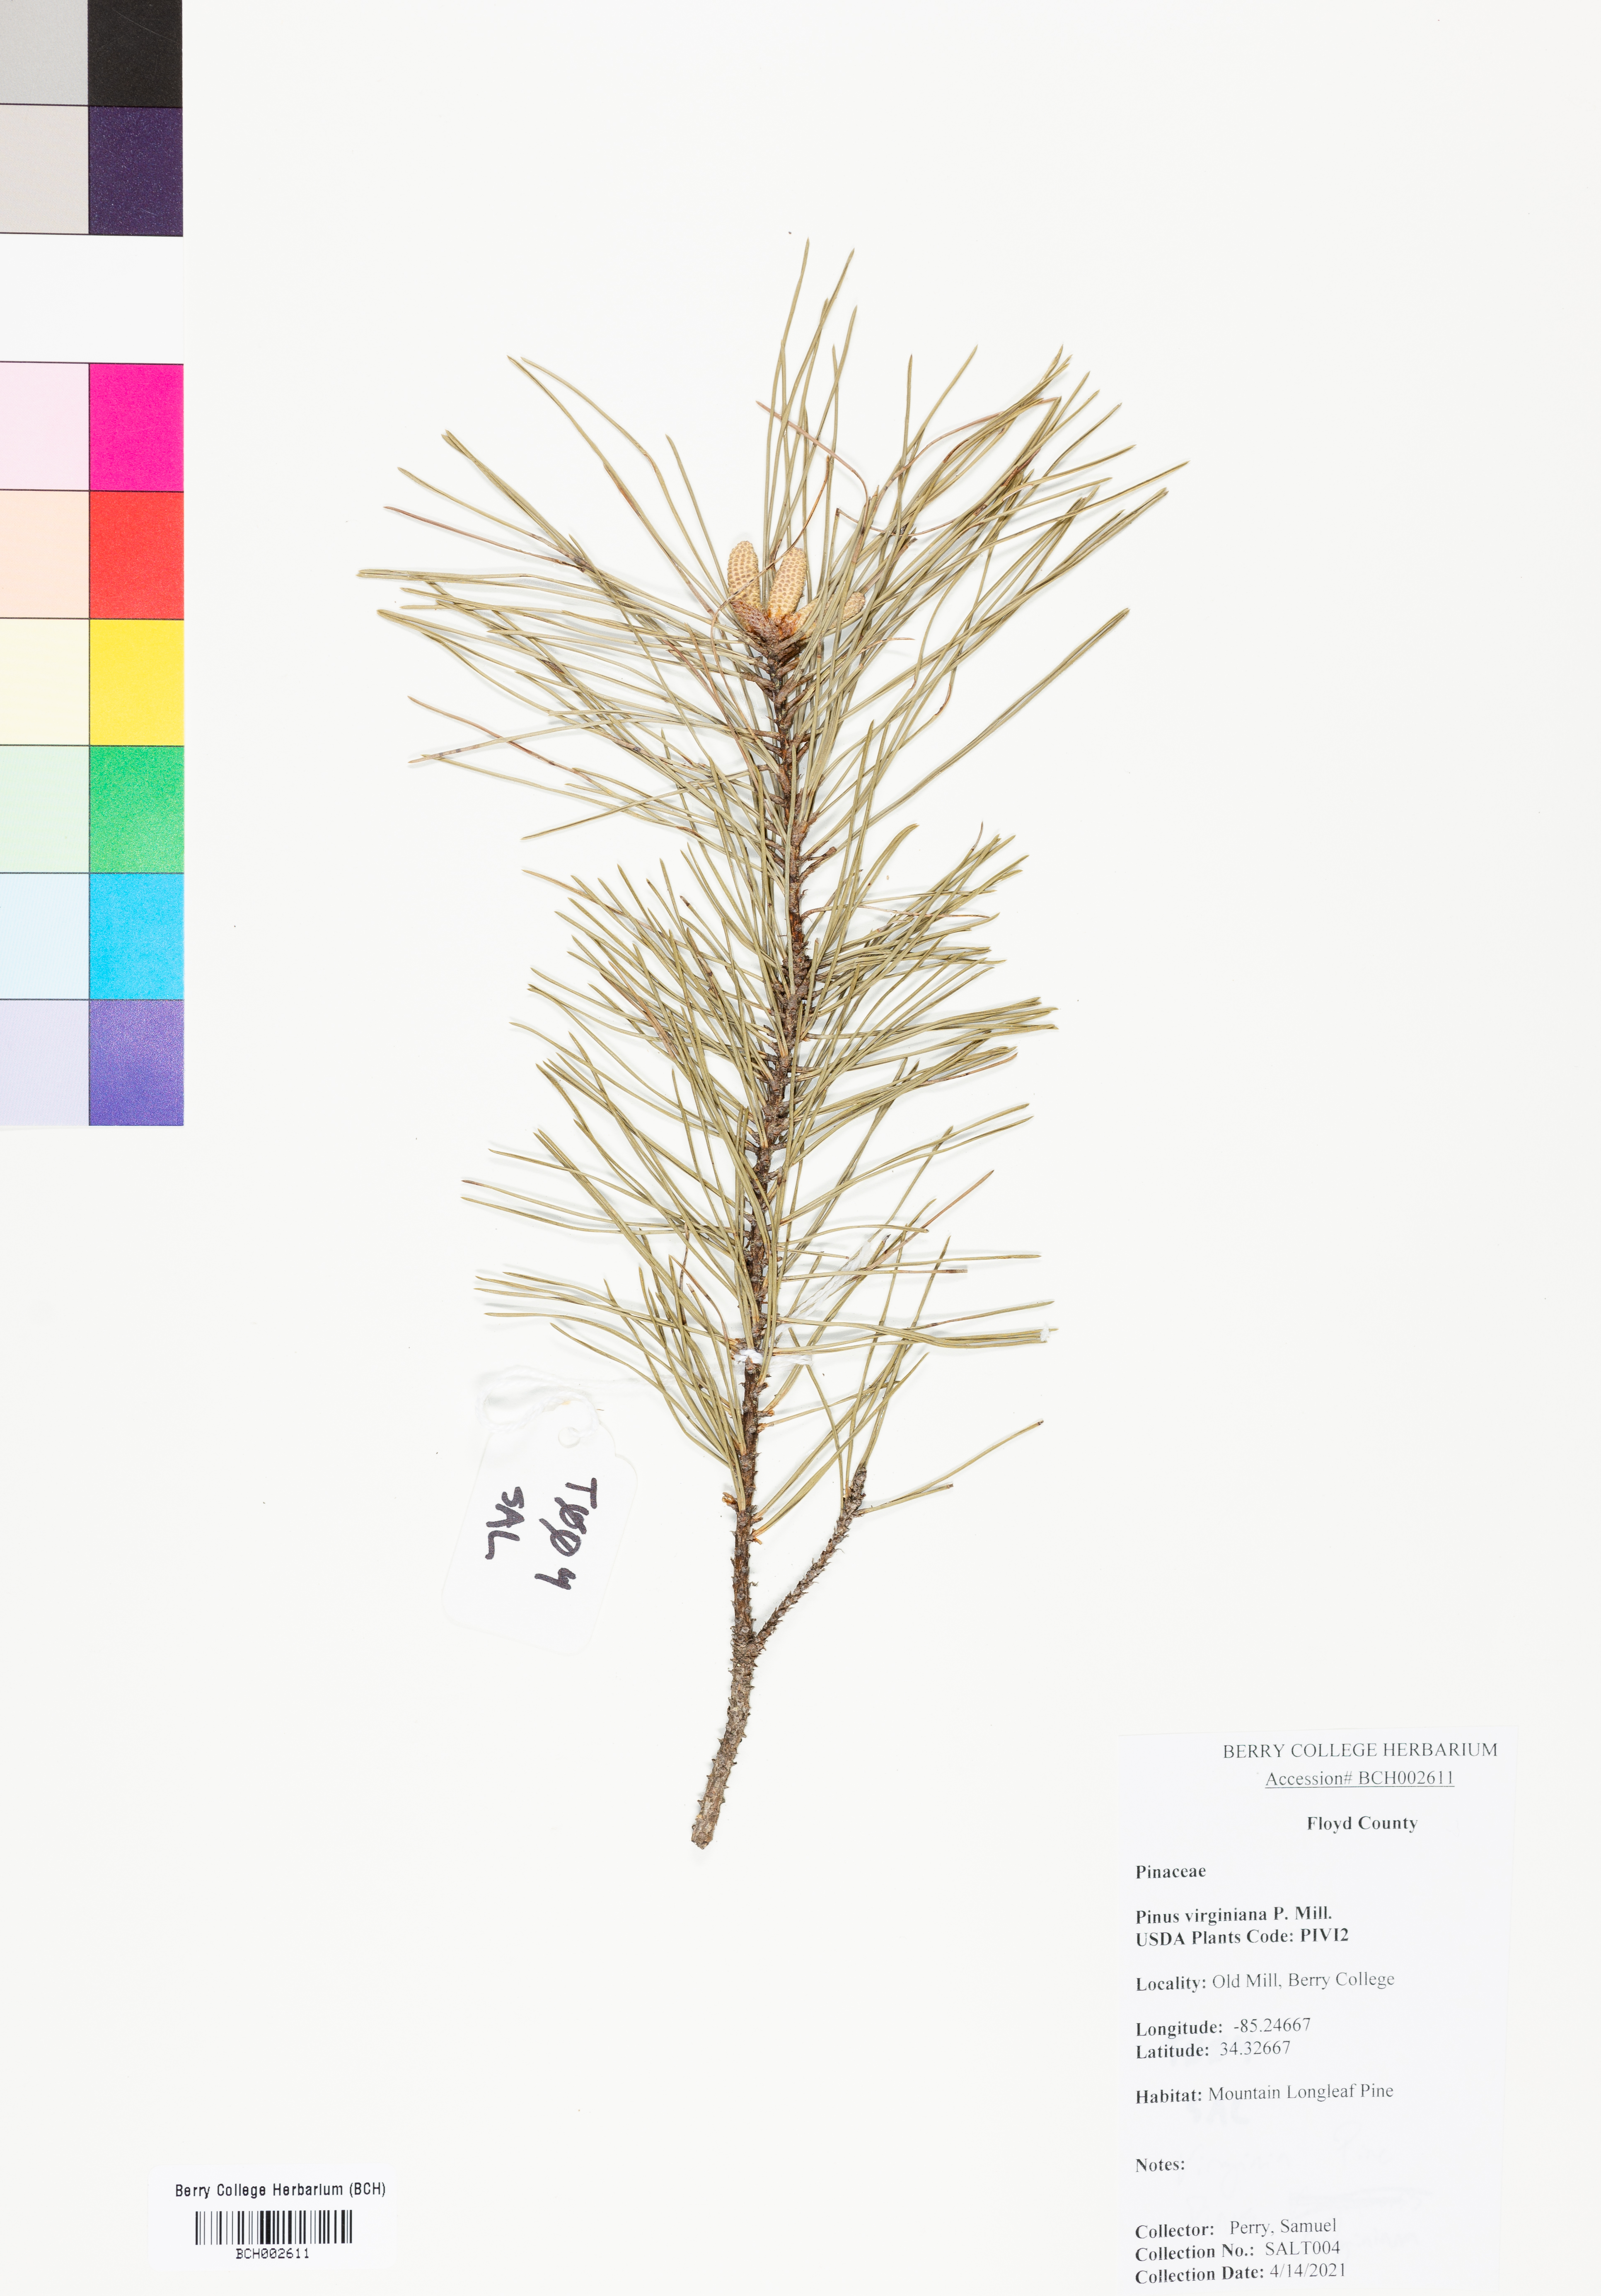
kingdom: Plantae
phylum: Tracheophyta
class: Pinopsida
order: Pinales
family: Pinaceae
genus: Pinus
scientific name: Pinus virginiana
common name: Scrub pine
